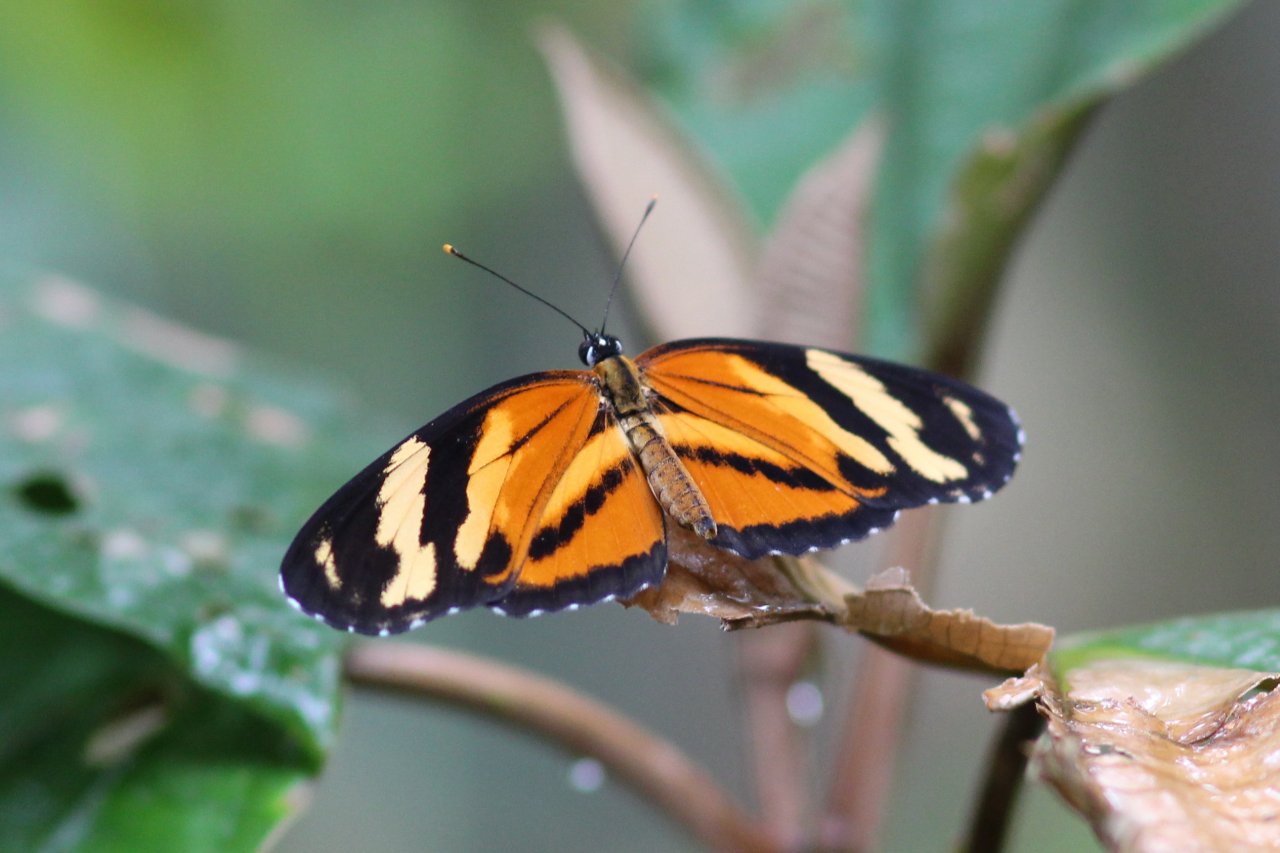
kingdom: Animalia
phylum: Arthropoda
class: Insecta
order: Lepidoptera
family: Nymphalidae
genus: Eresia
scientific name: Eresia eunice
